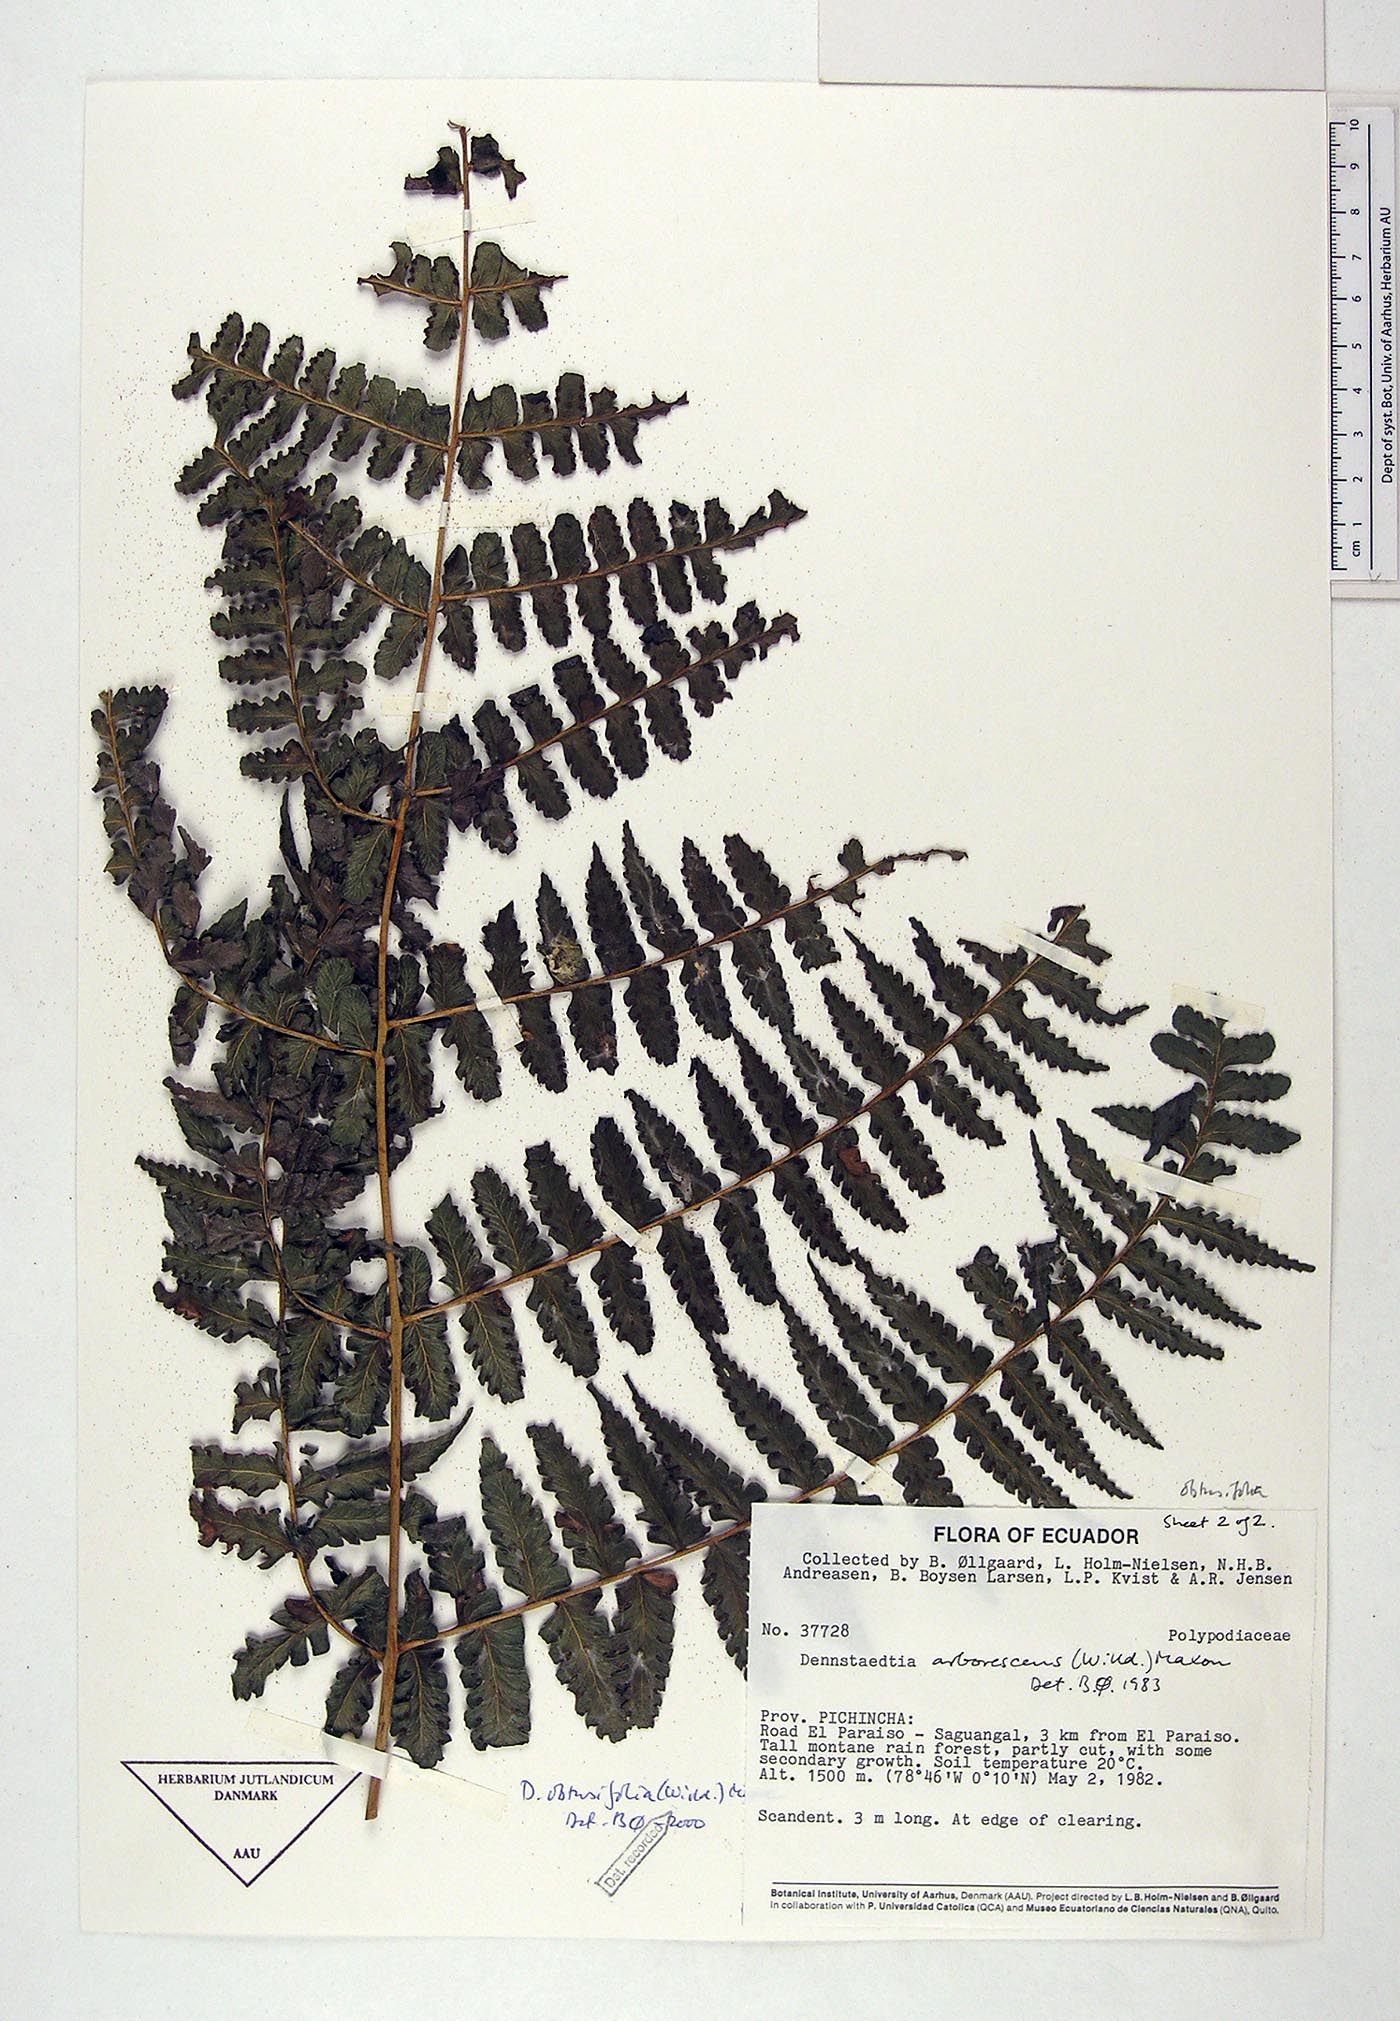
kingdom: Plantae
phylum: Tracheophyta
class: Polypodiopsida
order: Polypodiales
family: Dennstaedtiaceae
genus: Dennstaedtia
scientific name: Dennstaedtia obtusifolia
